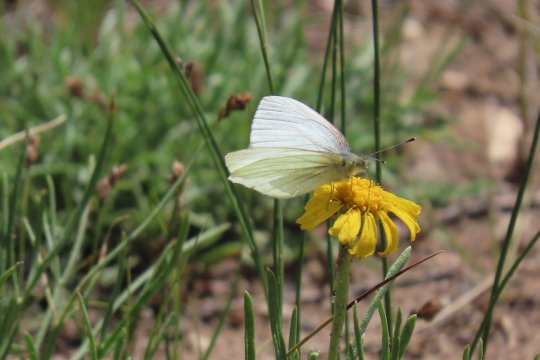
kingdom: Animalia
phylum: Arthropoda
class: Insecta
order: Lepidoptera
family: Pieridae
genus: Pieris
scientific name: Pieris marginalis
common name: Margined White
